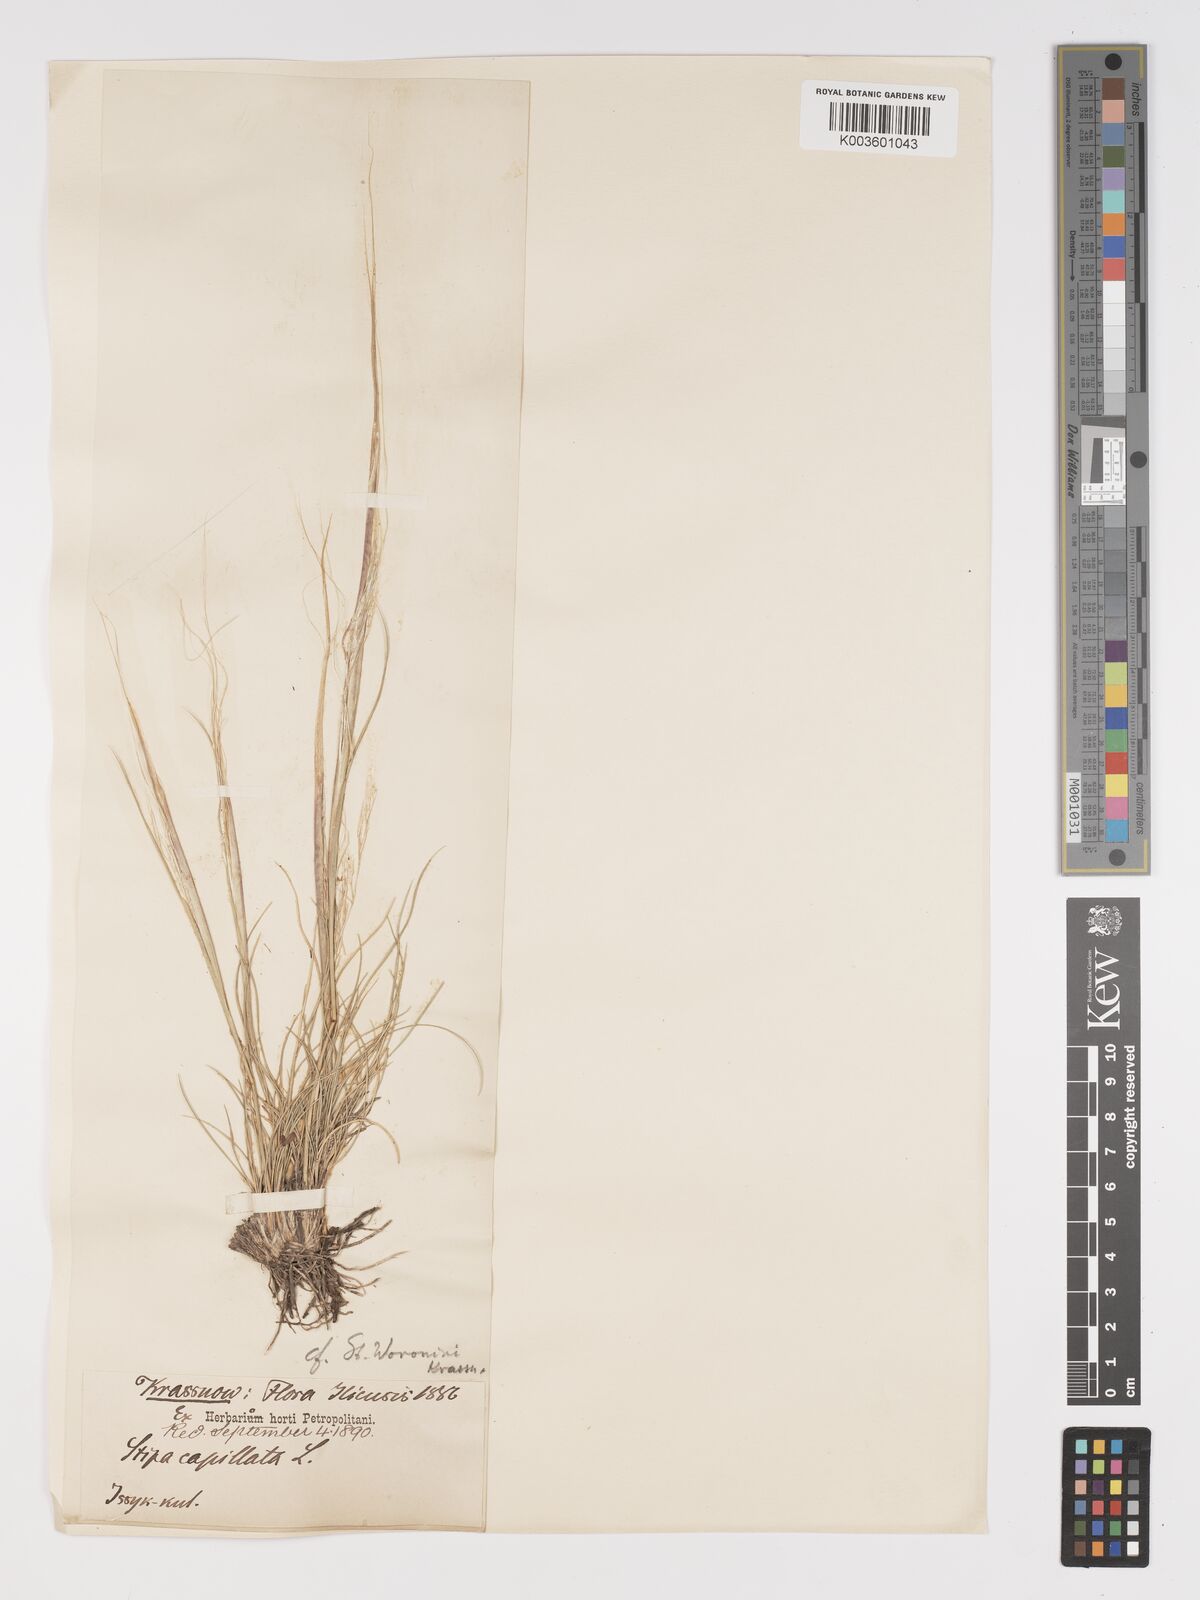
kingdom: Plantae
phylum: Tracheophyta
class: Liliopsida
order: Poales
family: Poaceae
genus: Stipa
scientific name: Stipa capillata
